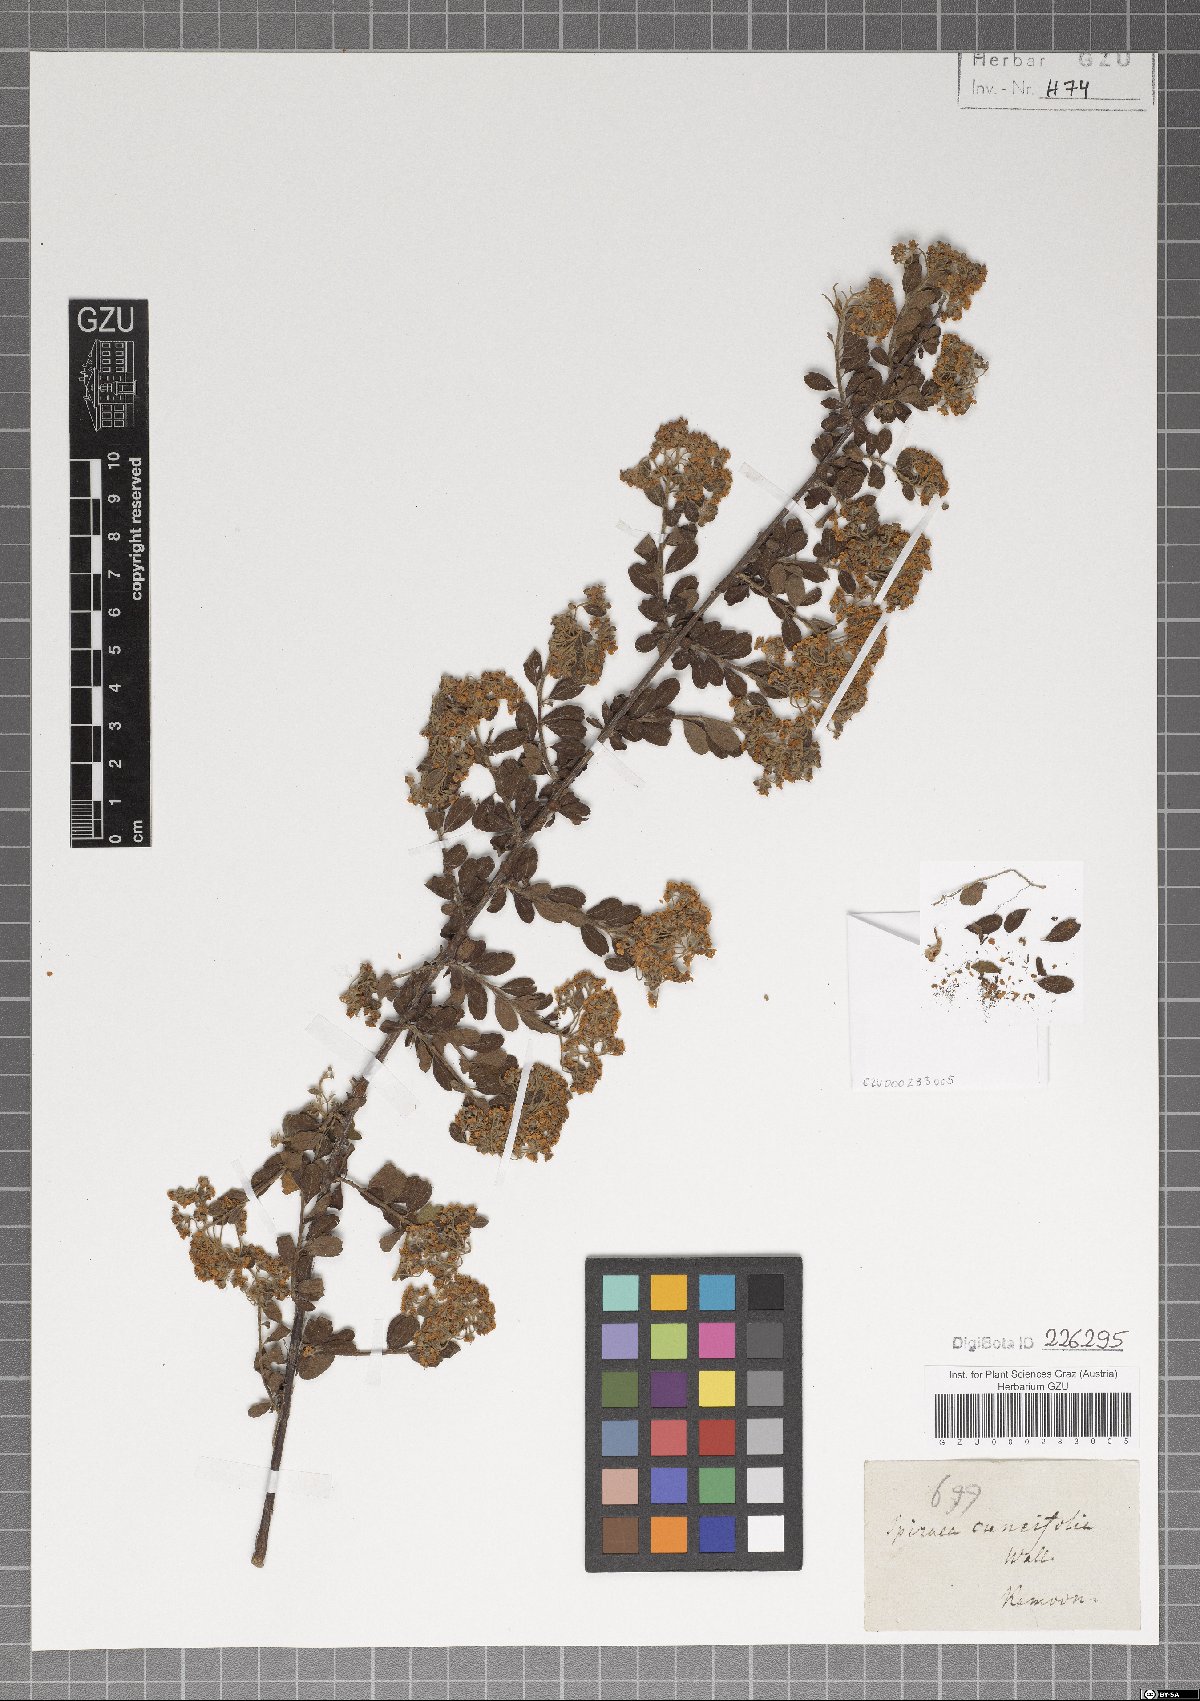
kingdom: Plantae
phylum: Tracheophyta
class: Magnoliopsida
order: Rosales
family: Rosaceae
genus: Spiraea
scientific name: Spiraea canescens
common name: Himalayan spiraea
